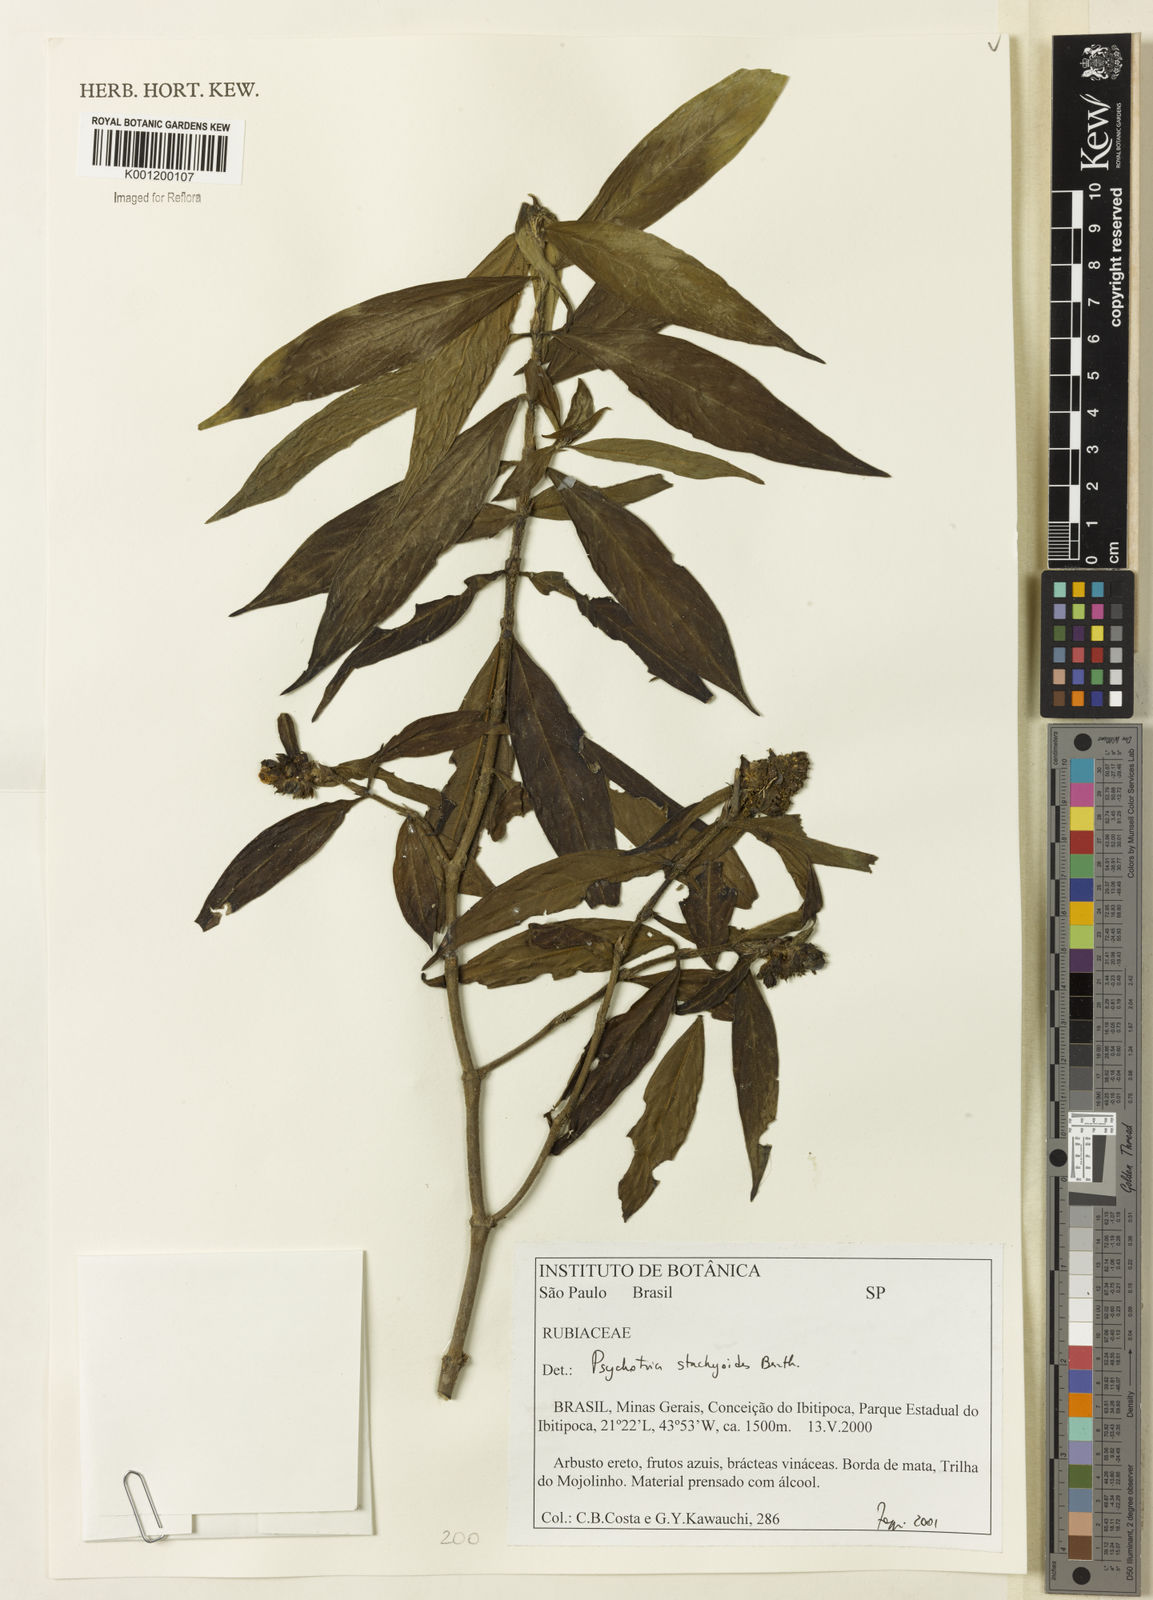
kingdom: Plantae
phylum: Tracheophyta
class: Magnoliopsida
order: Gentianales
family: Rubiaceae
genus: Psychotria
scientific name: Psychotria stachyoides
